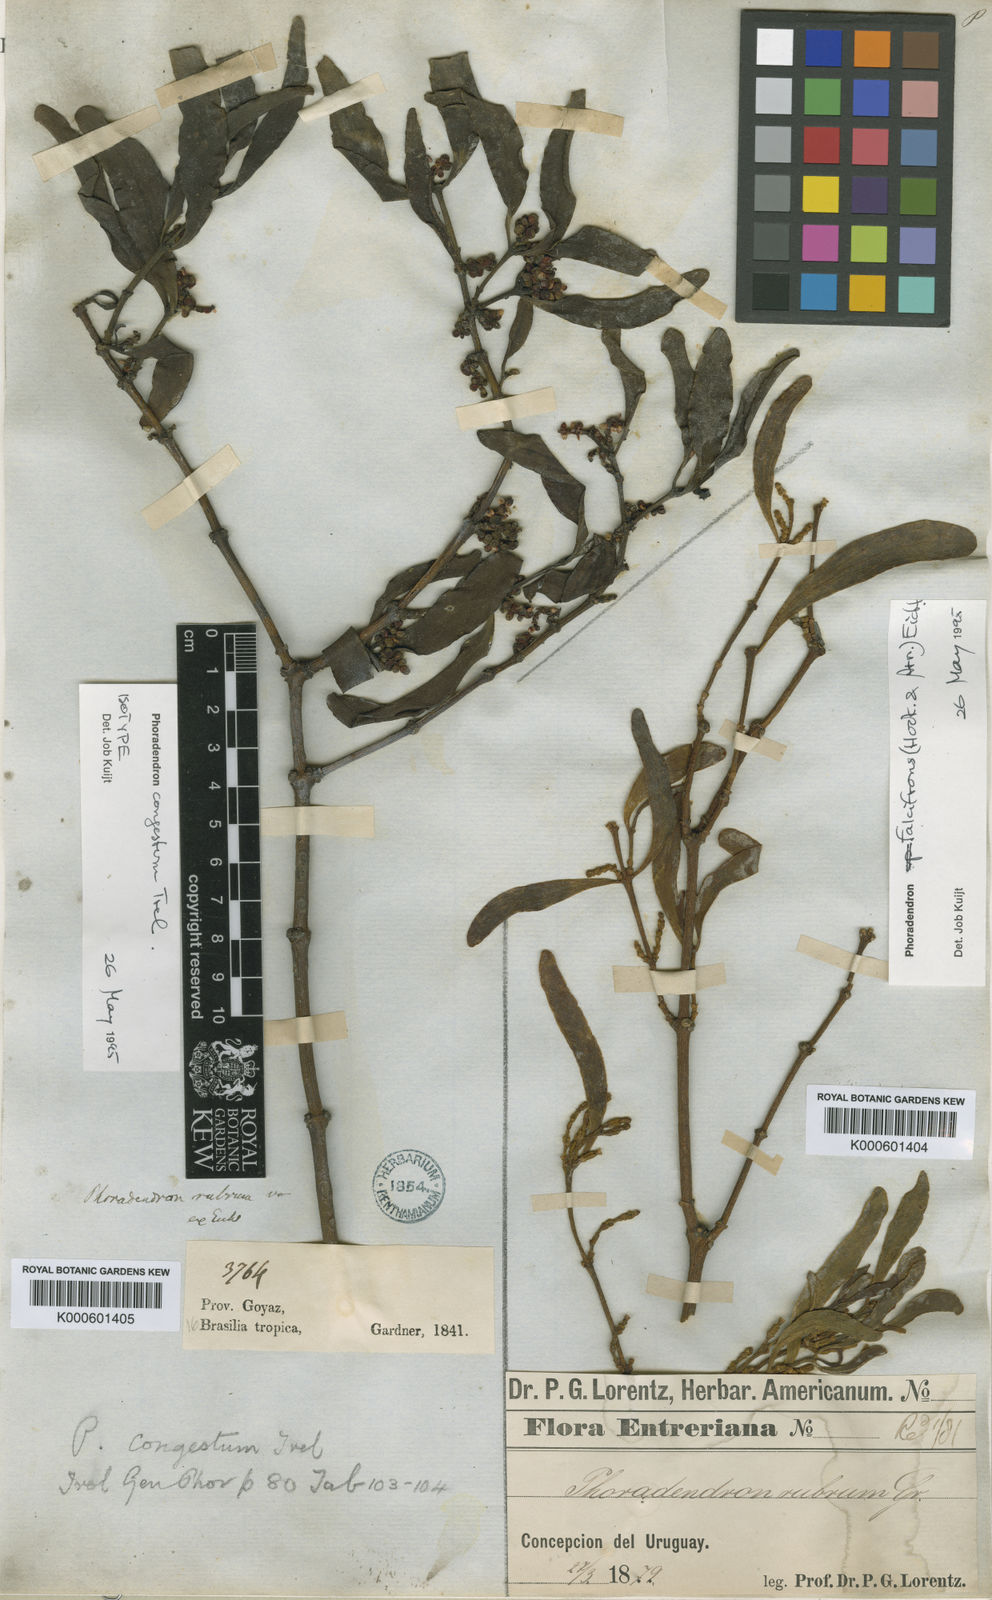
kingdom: Plantae
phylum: Tracheophyta
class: Magnoliopsida
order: Santalales
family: Viscaceae
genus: Phoradendron
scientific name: Phoradendron congestum
